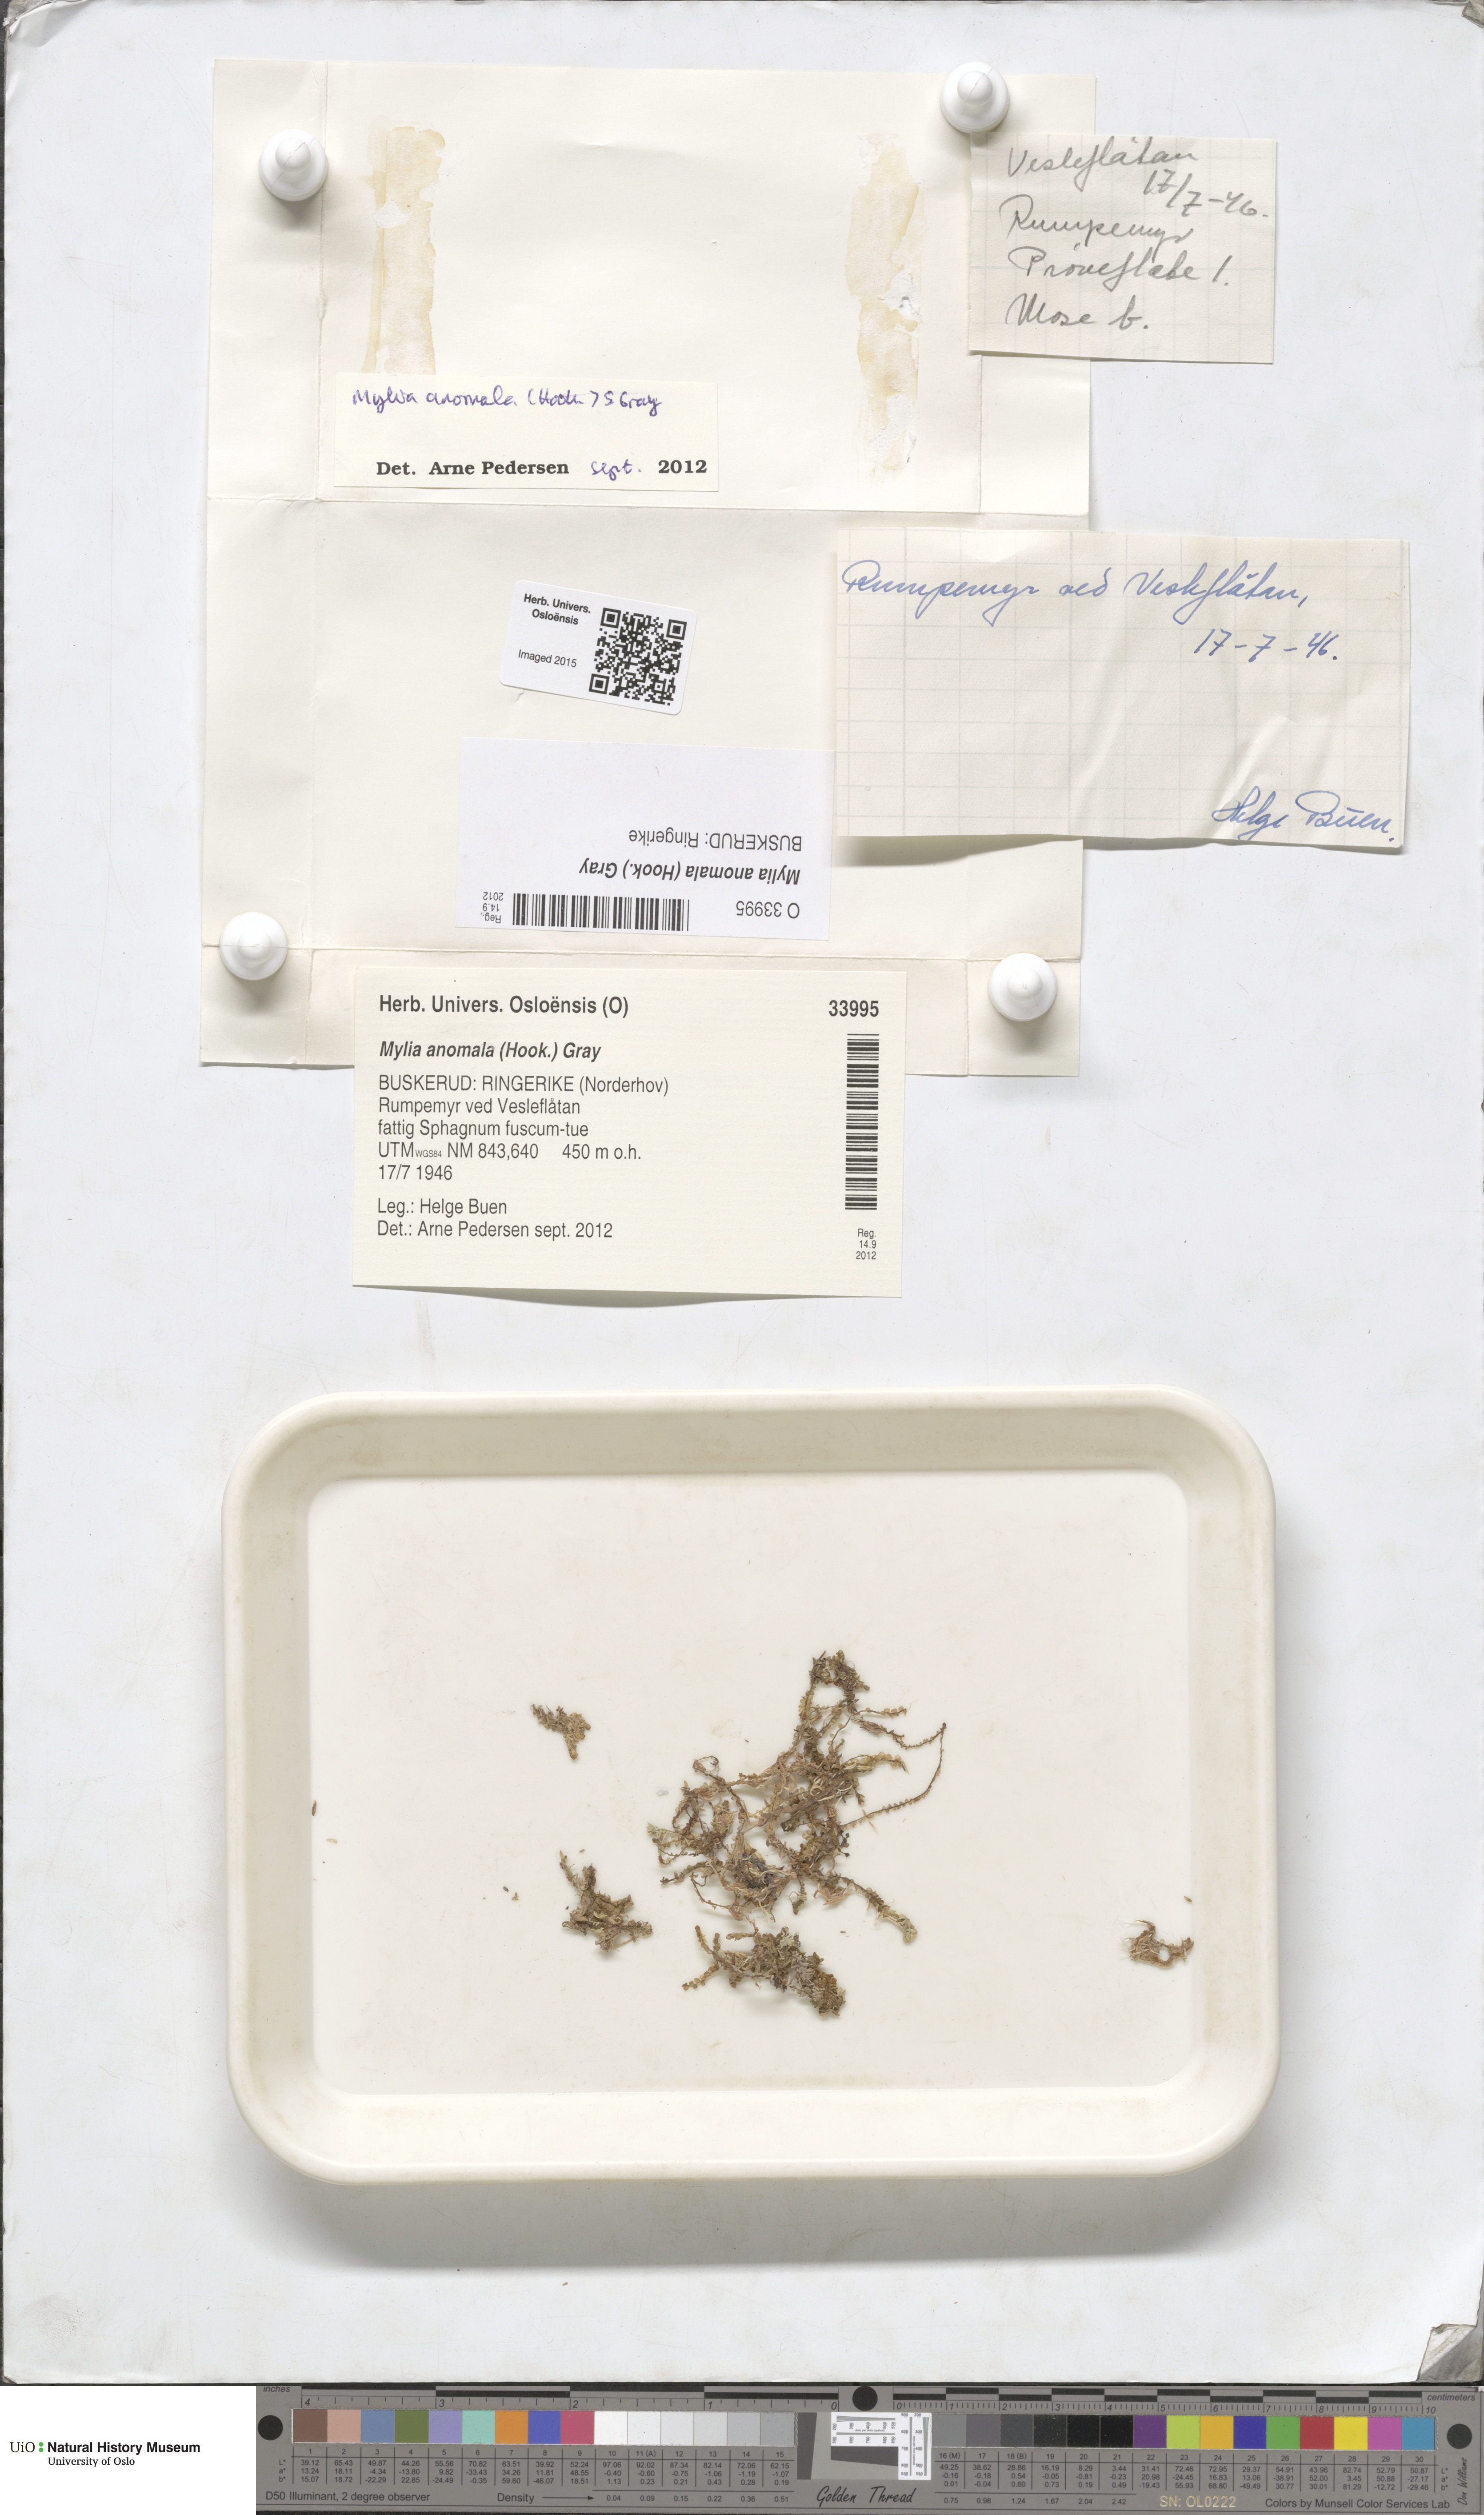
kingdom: Plantae
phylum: Marchantiophyta
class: Jungermanniopsida
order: Jungermanniales
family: Myliaceae
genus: Mylia
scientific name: Mylia anomala
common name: Anomalous flapwort
